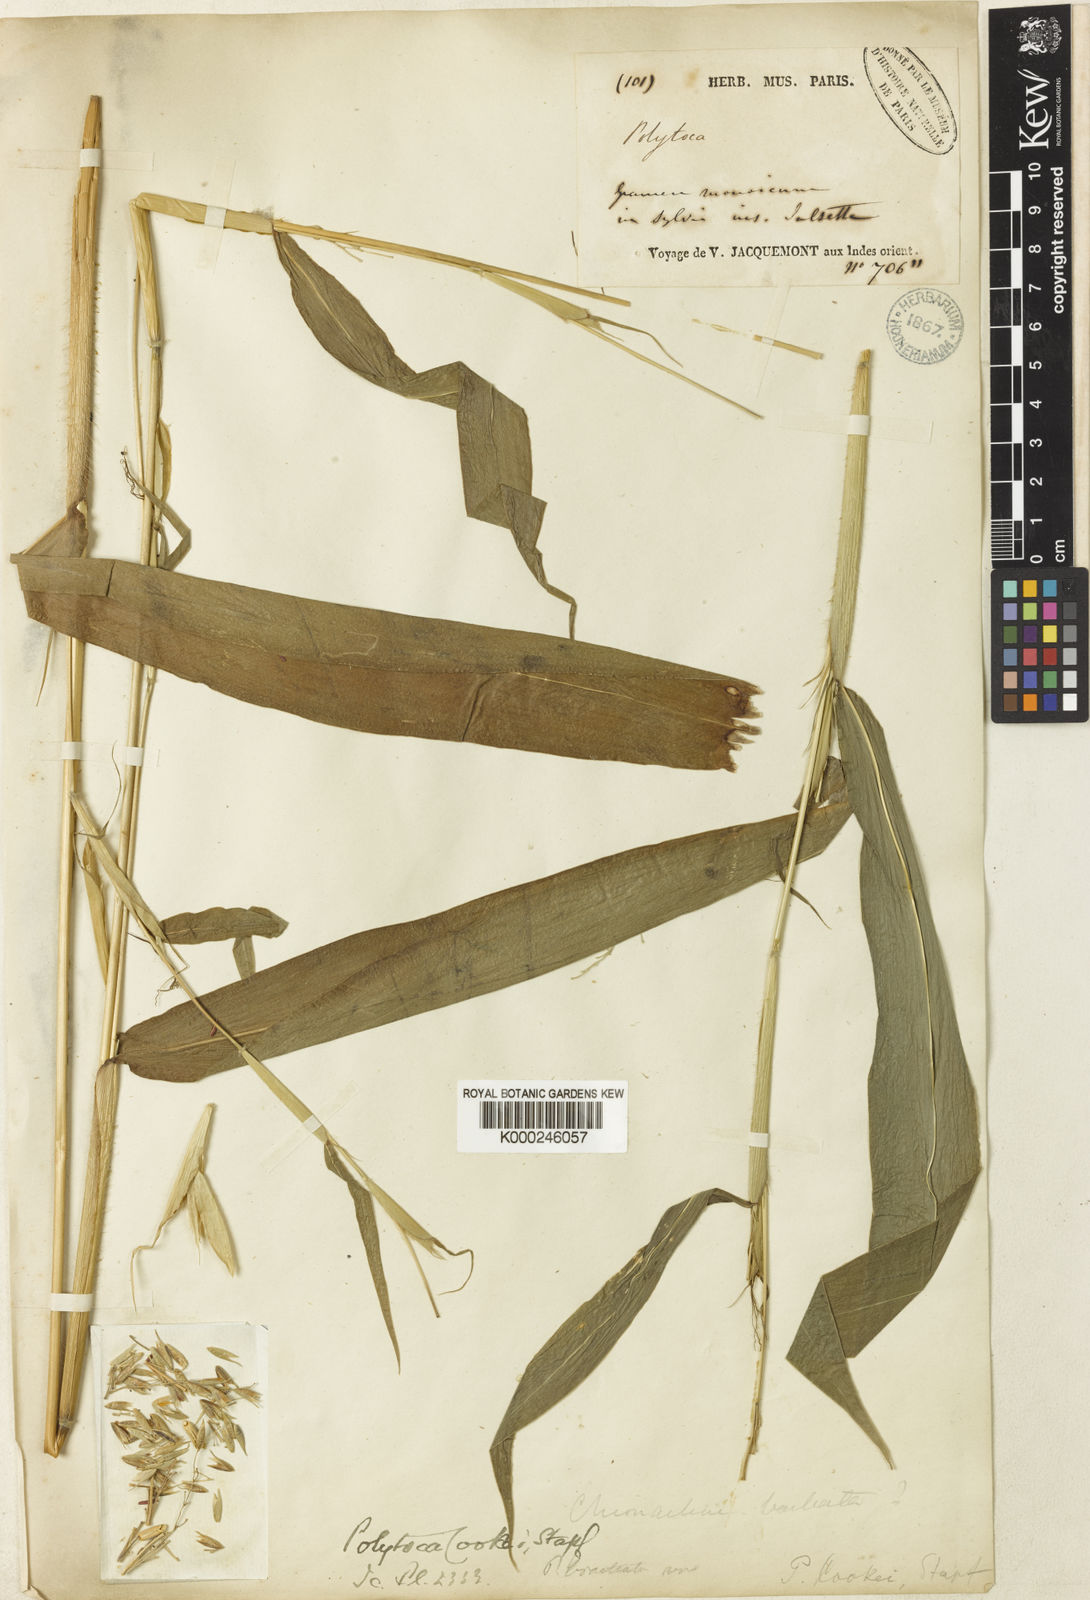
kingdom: Plantae
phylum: Tracheophyta
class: Liliopsida
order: Poales
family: Poaceae
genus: Trilobachne
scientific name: Trilobachne cookei
